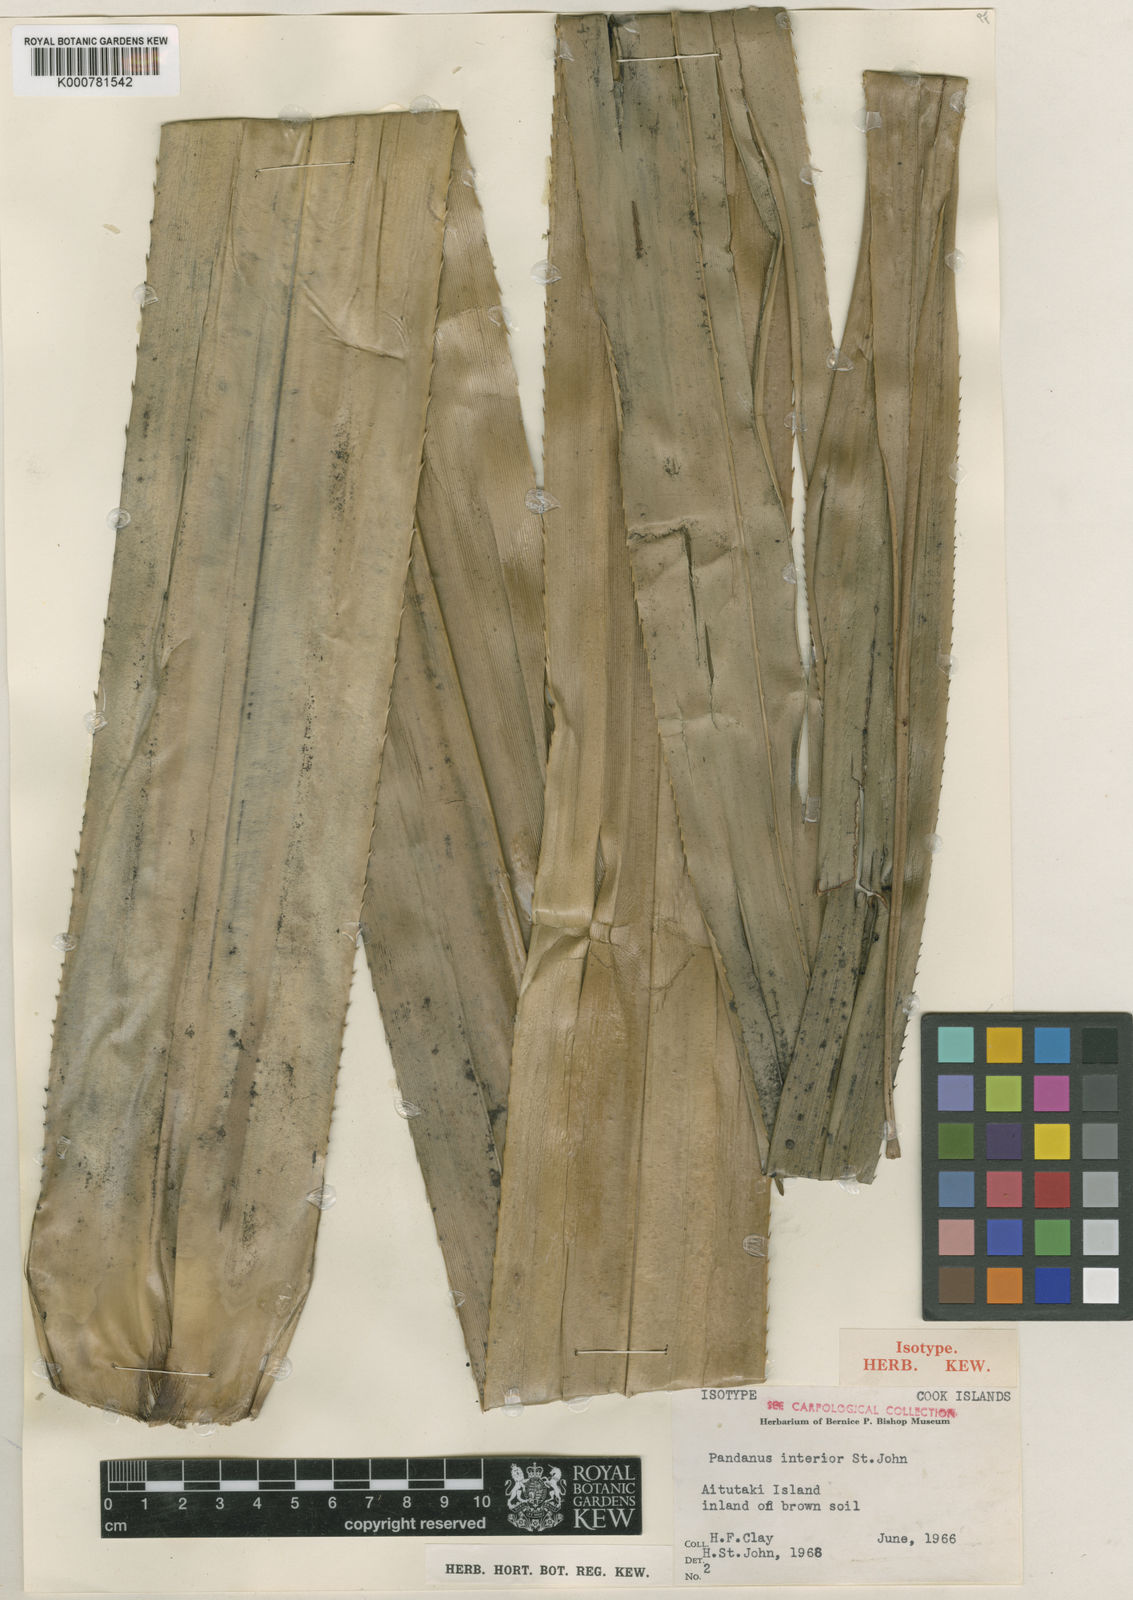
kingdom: Plantae
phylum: Tracheophyta
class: Liliopsida
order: Pandanales
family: Pandanaceae
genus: Pandanus
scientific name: Pandanus tectorius
